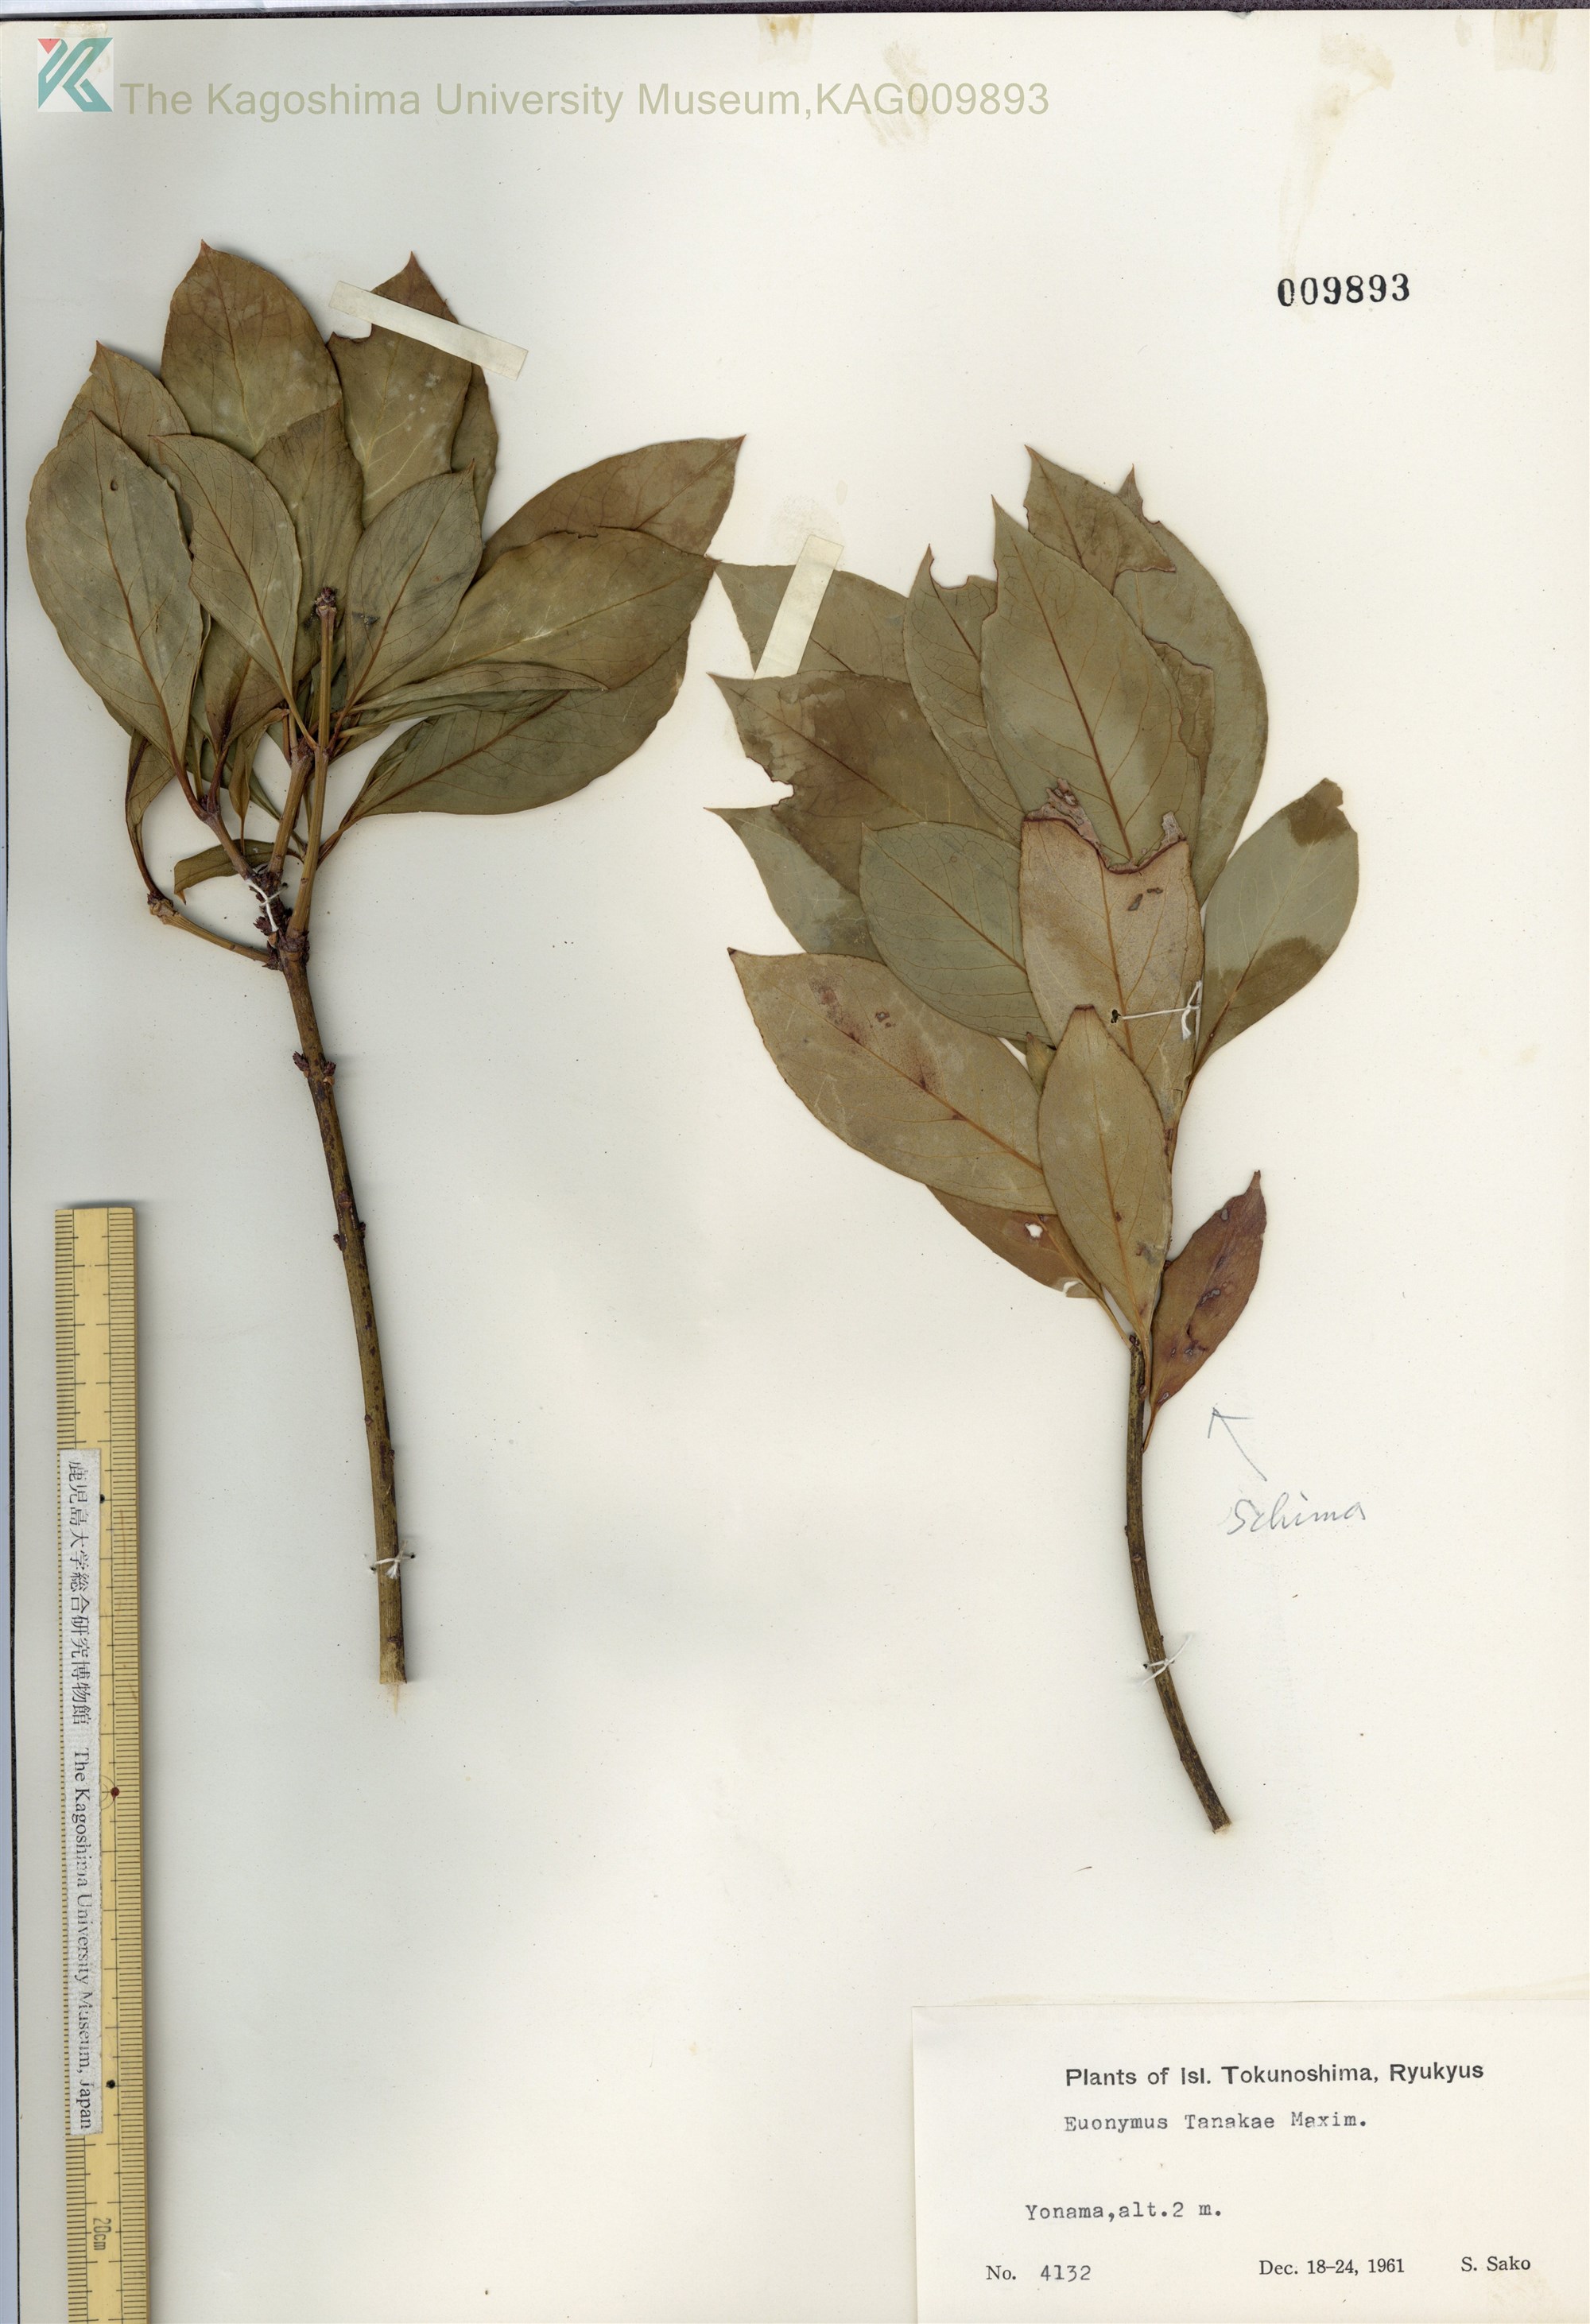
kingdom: Plantae
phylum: Tracheophyta
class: Magnoliopsida
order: Celastrales
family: Celastraceae
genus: Euonymus
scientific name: Euonymus carnosus
